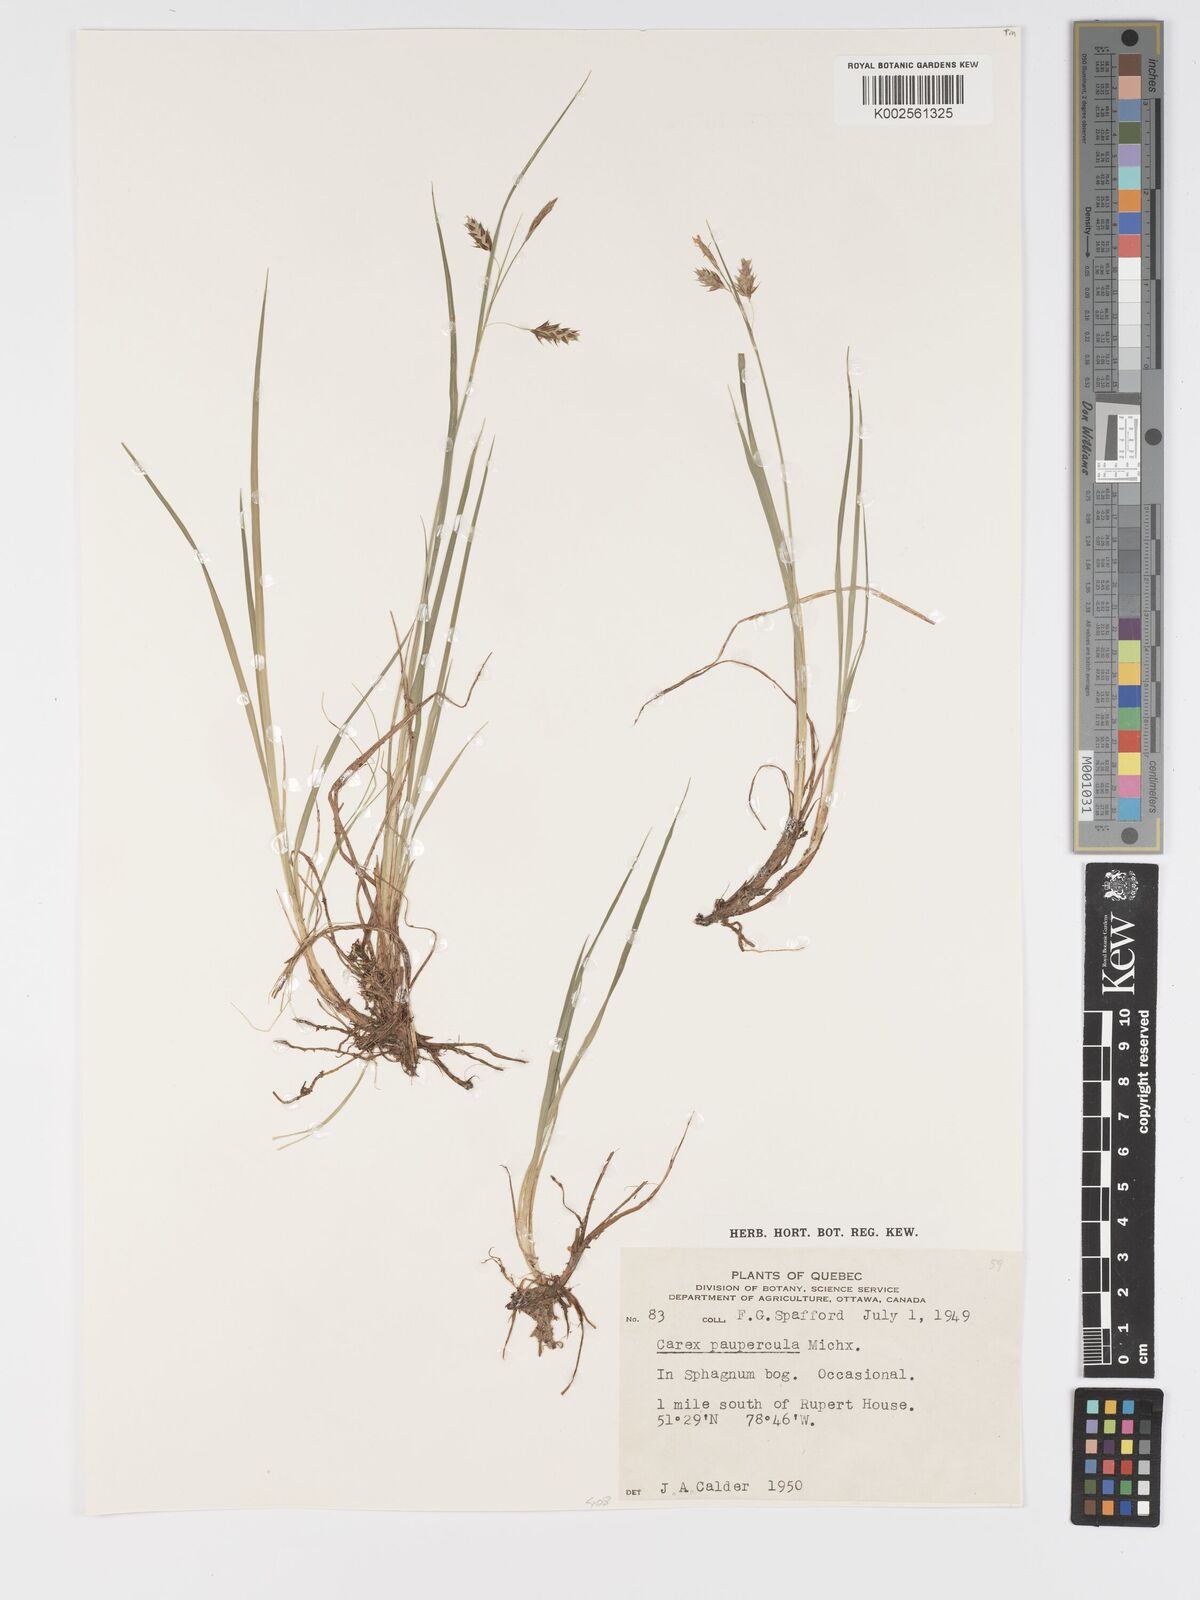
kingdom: Plantae
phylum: Tracheophyta
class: Liliopsida
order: Poales
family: Cyperaceae
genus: Carex
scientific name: Carex magellanica
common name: Bog sedge
